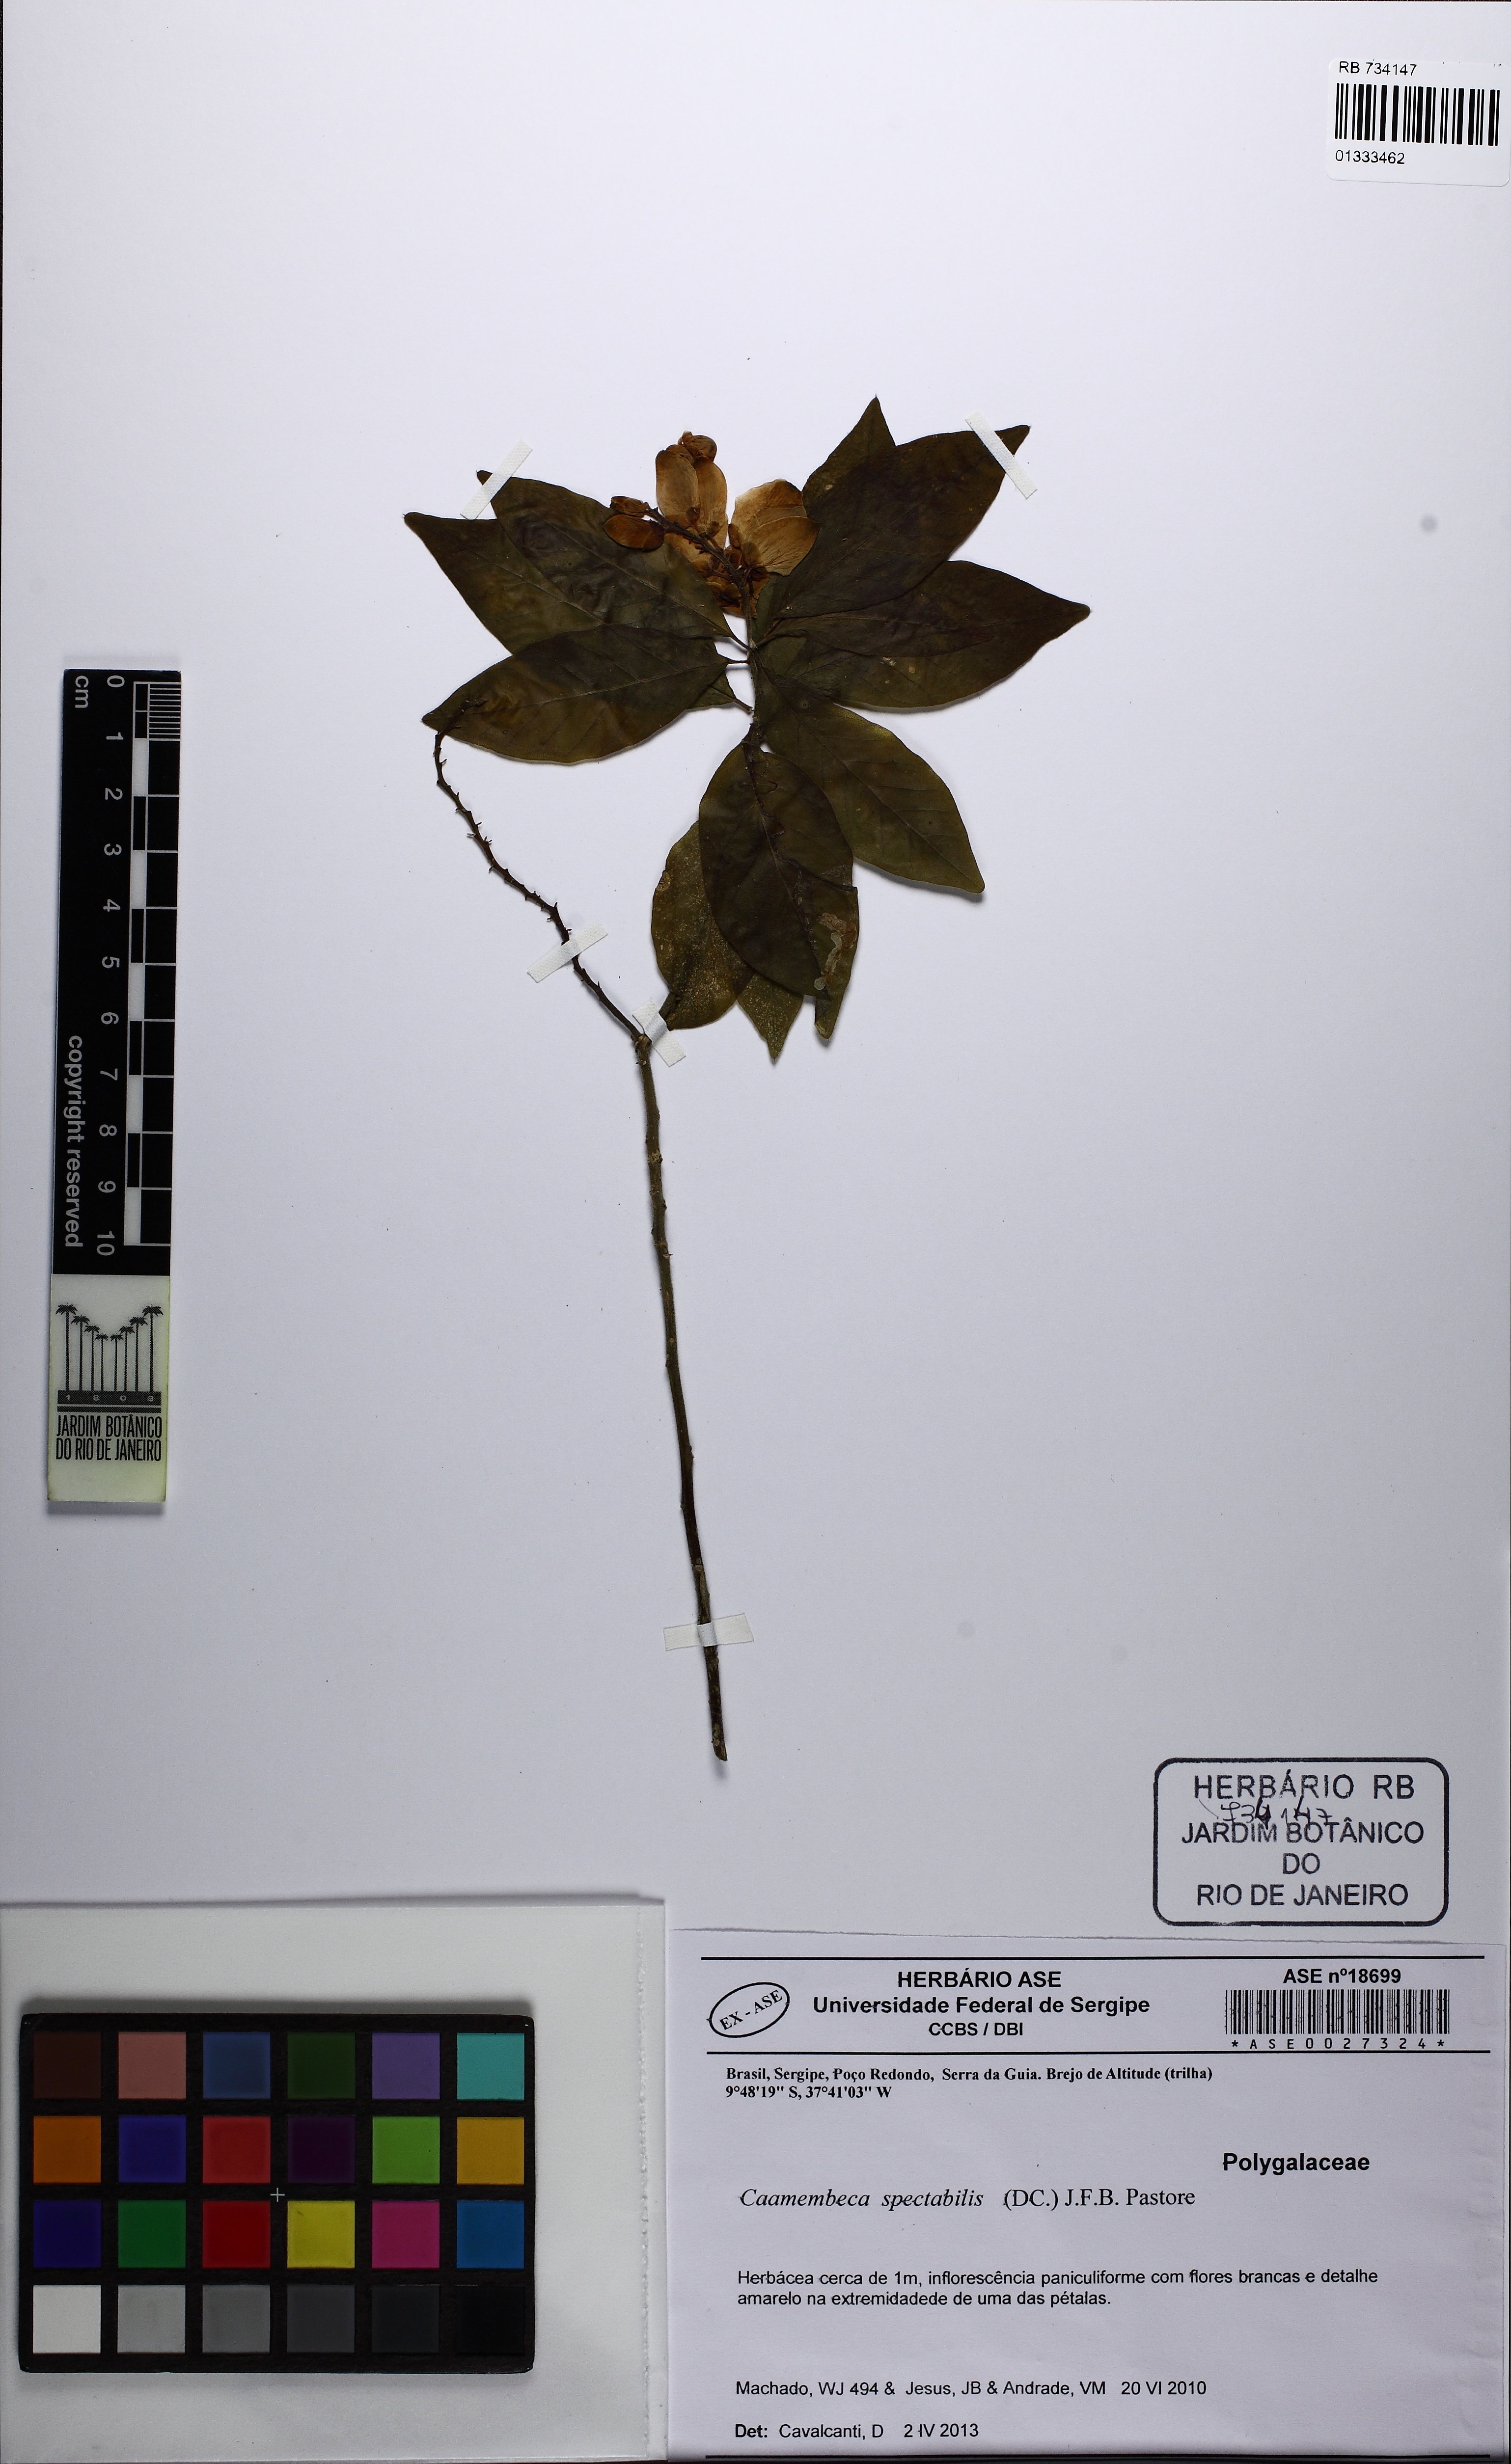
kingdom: Plantae
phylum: Tracheophyta
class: Magnoliopsida
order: Fabales
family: Polygalaceae
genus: Caamembeca
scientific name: Caamembeca spectabilis
